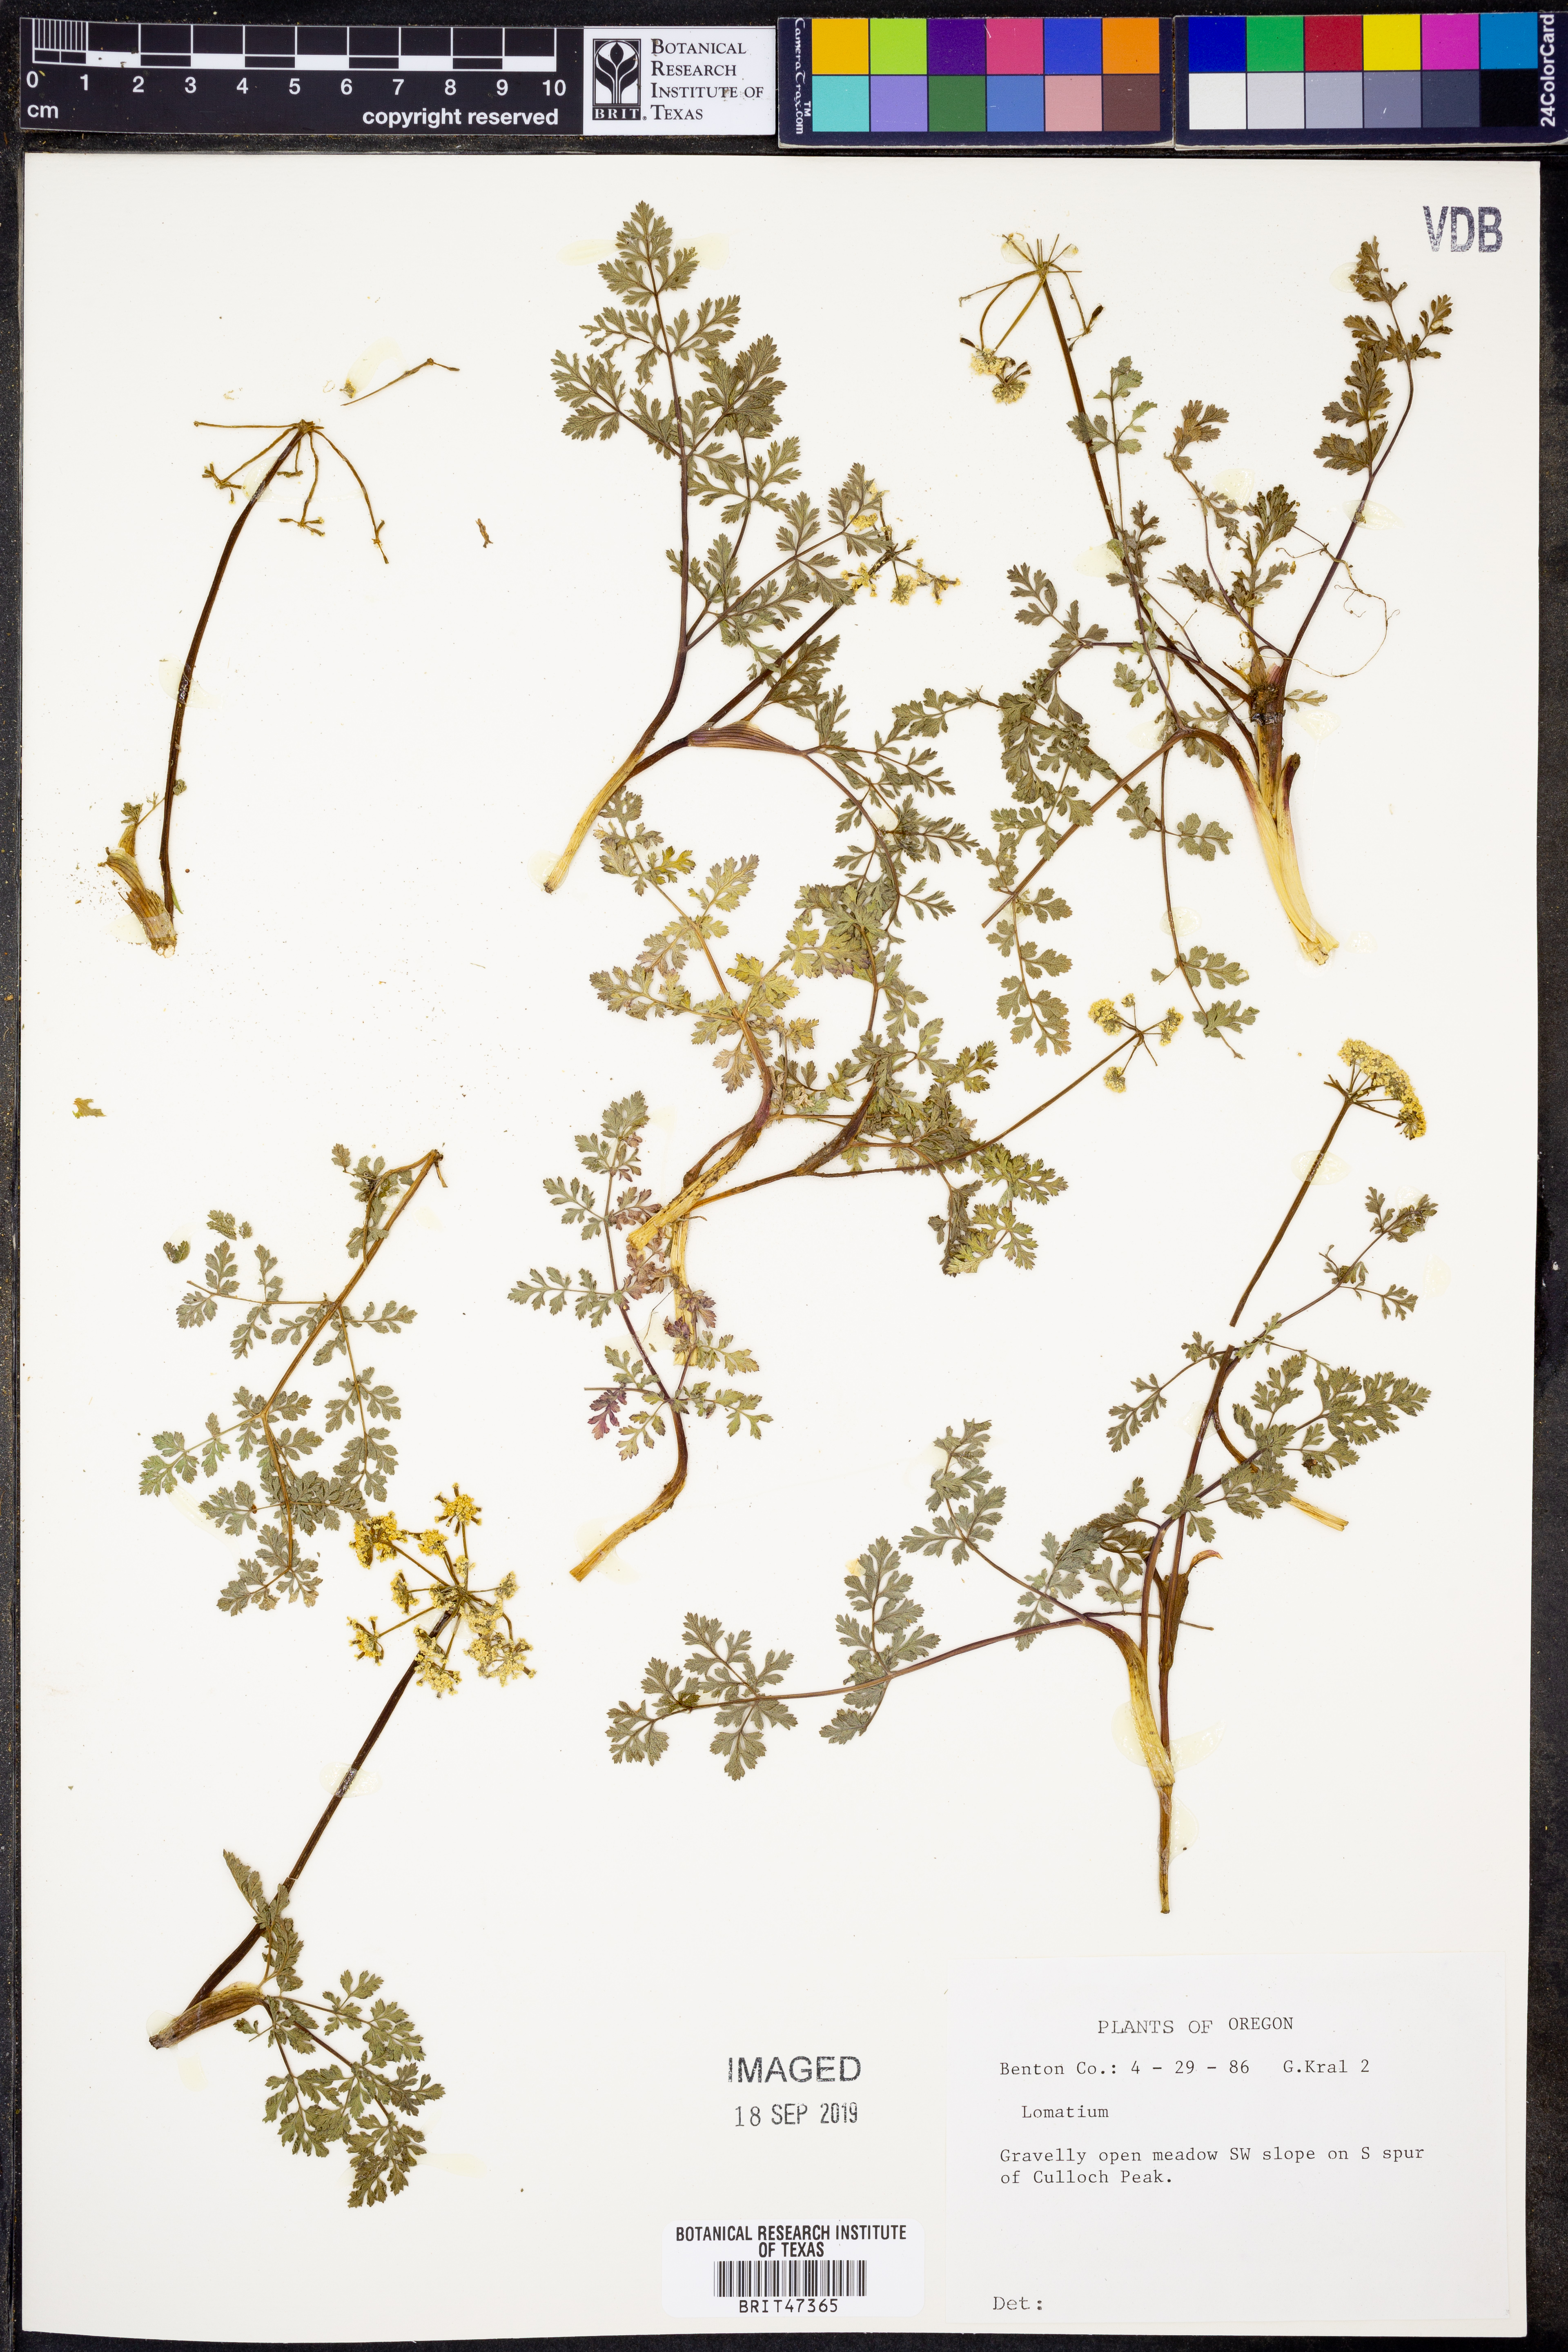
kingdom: Plantae
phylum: Tracheophyta
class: Magnoliopsida
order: Apiales
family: Apiaceae
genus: Lomatium
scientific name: Lomatium
